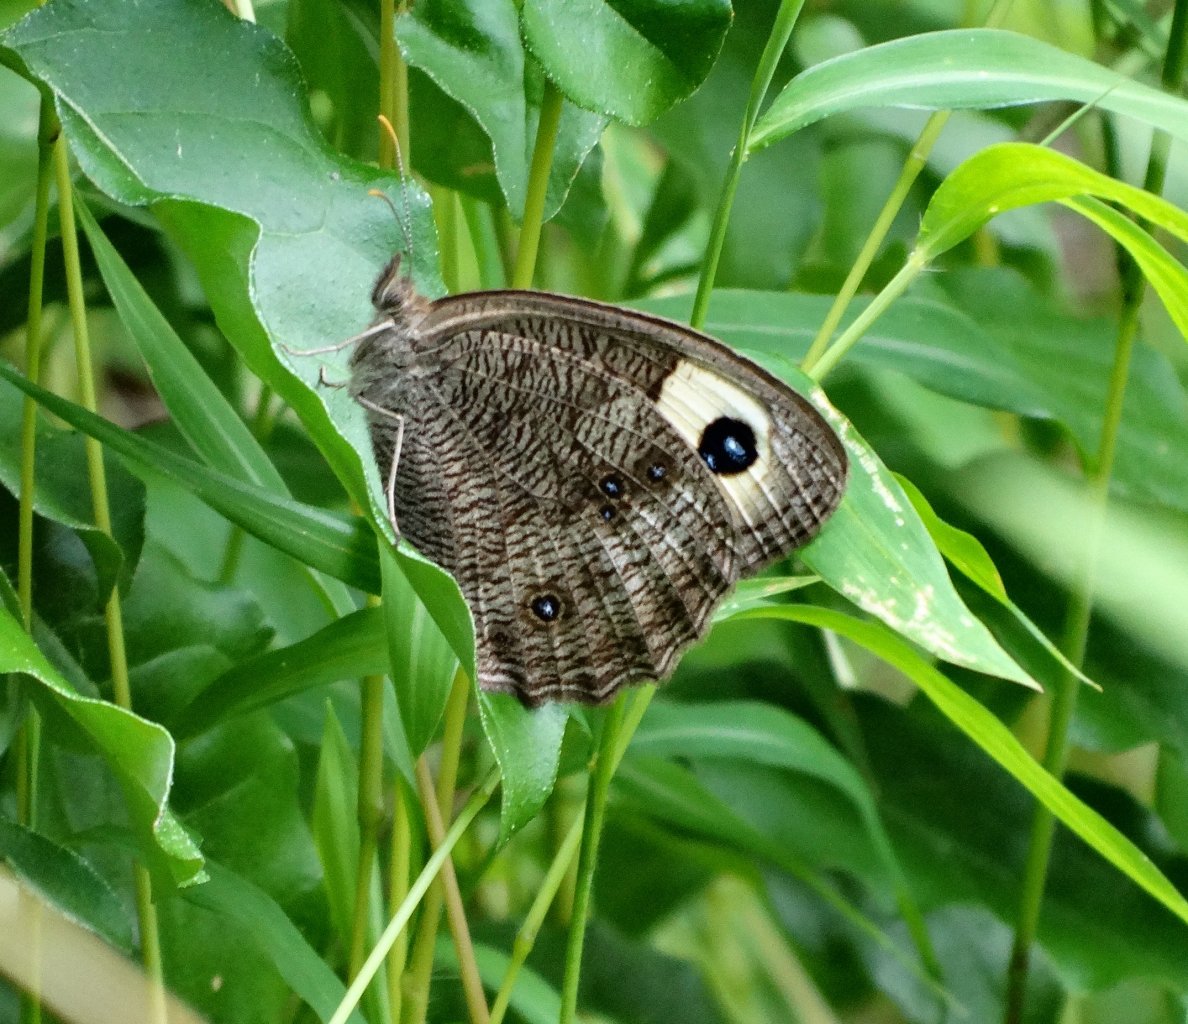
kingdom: Animalia
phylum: Arthropoda
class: Insecta
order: Lepidoptera
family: Nymphalidae
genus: Cercyonis
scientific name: Cercyonis pegala
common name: Common Wood-Nymph
